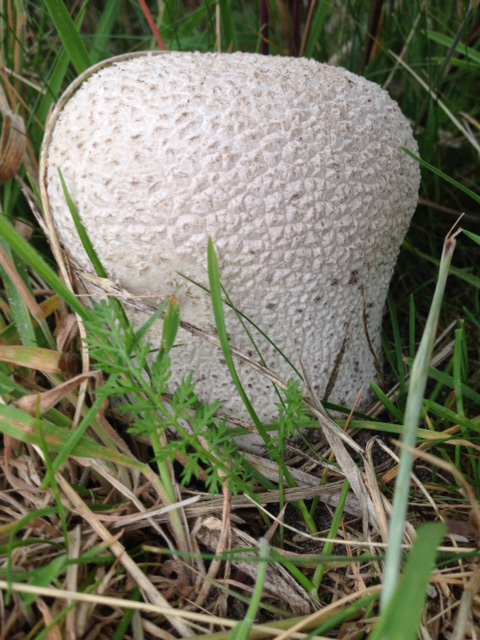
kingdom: Fungi
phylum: Basidiomycota
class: Agaricomycetes
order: Agaricales
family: Lycoperdaceae
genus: Bovistella
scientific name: Bovistella utriformis
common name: skællet støvbold
